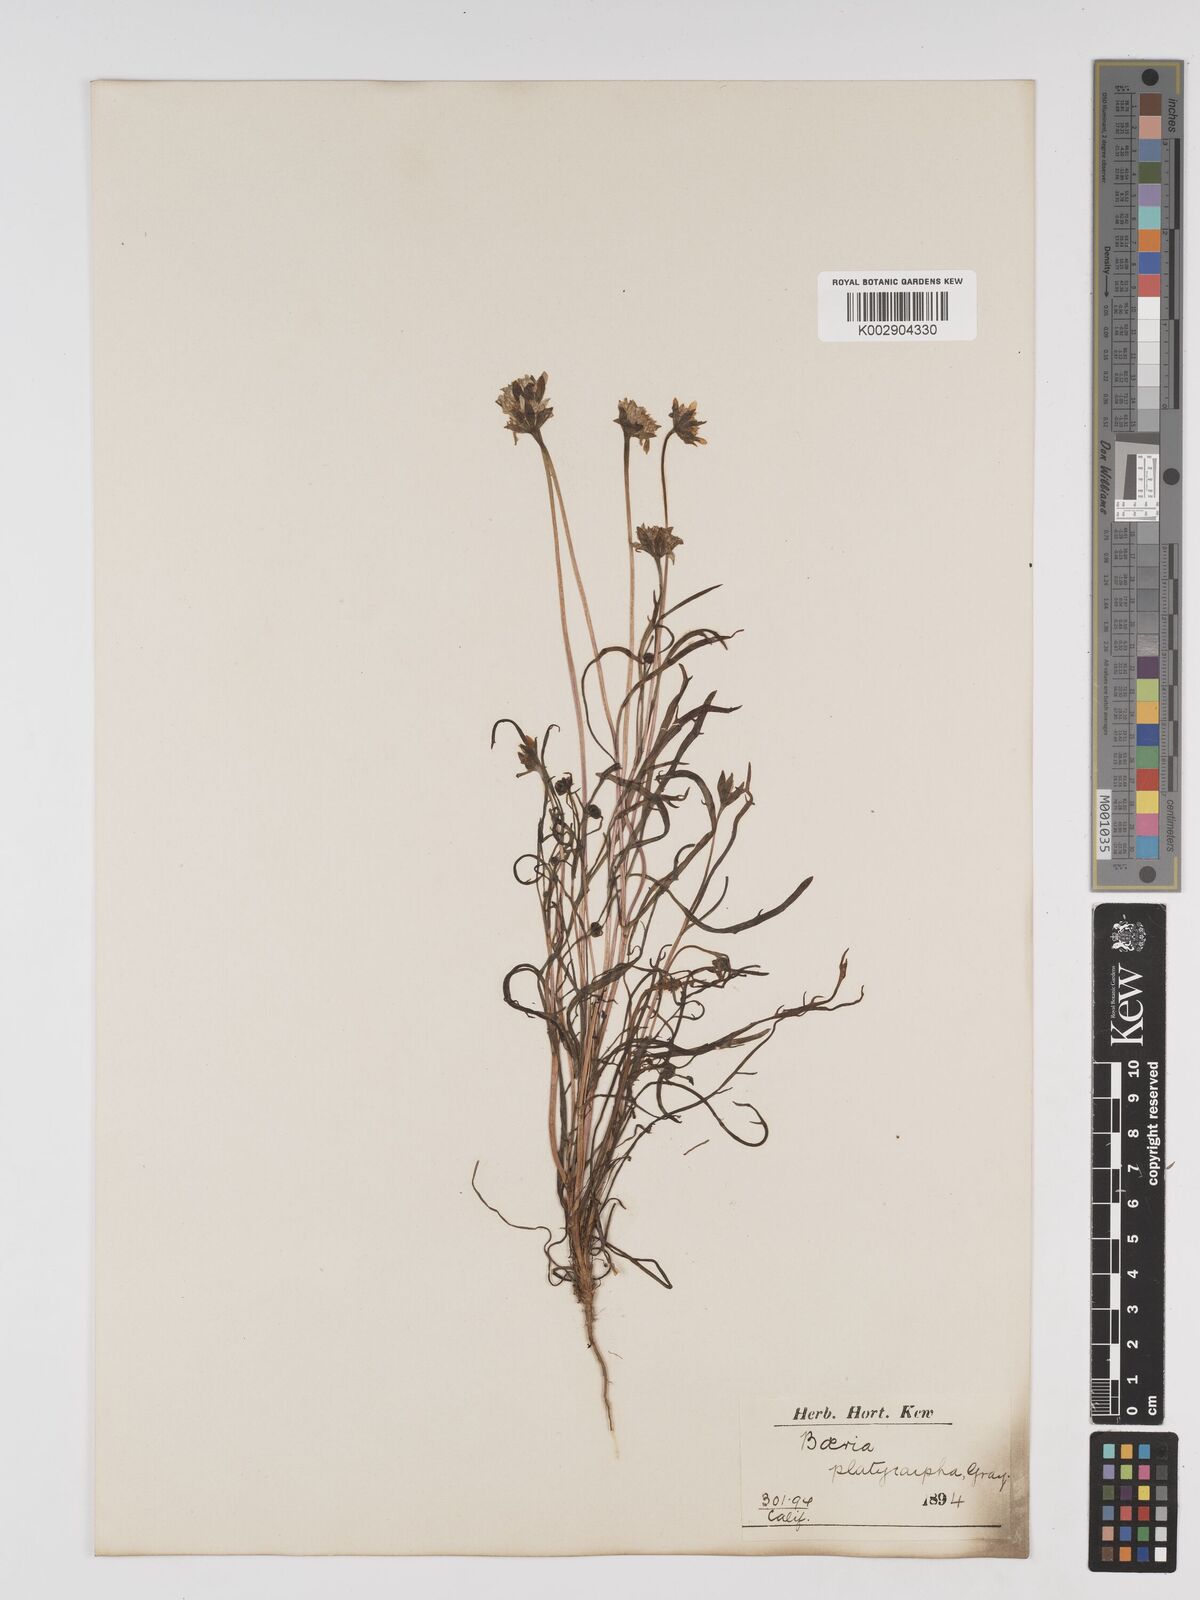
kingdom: Plantae
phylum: Tracheophyta
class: Magnoliopsida
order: Asterales
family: Asteraceae
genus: Lasthenia
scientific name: Lasthenia platycarpha
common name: Alkali goldfields
